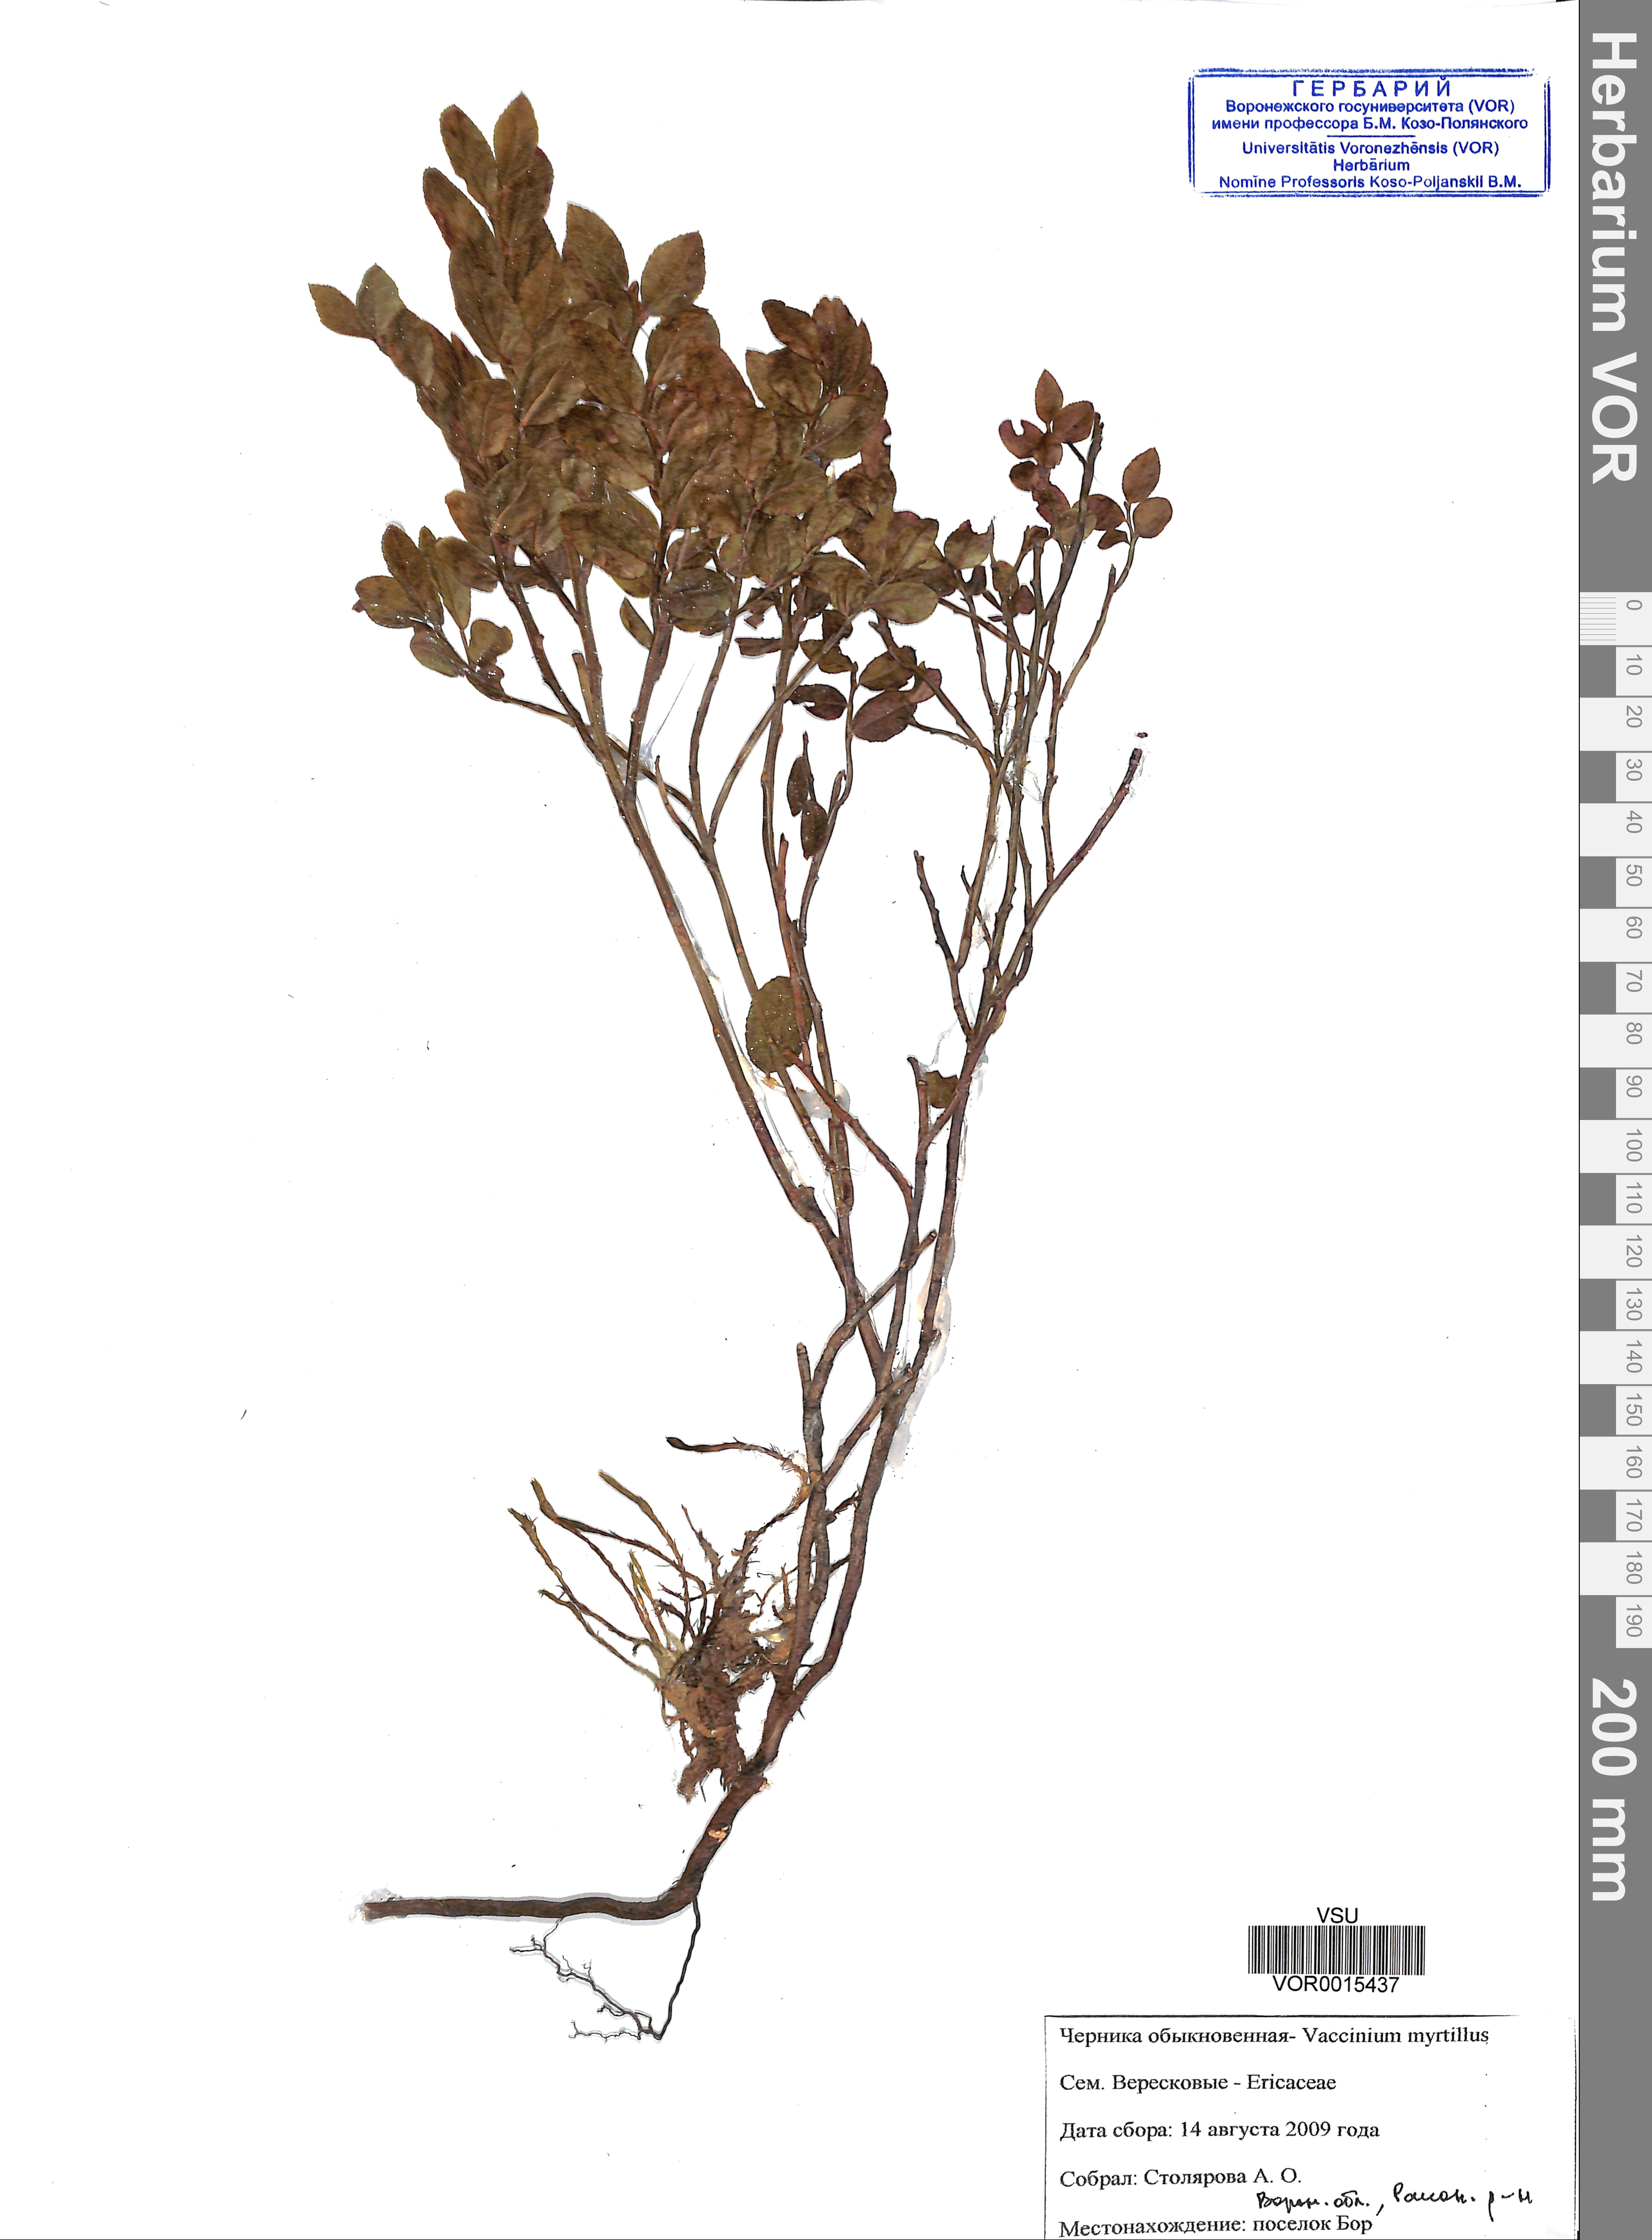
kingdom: Plantae
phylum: Tracheophyta
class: Magnoliopsida
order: Ericales
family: Ericaceae
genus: Vaccinium
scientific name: Vaccinium myrtillus
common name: Bilberry
